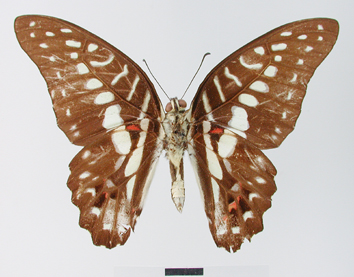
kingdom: Animalia
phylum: Arthropoda
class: Insecta
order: Lepidoptera
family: Papilionidae
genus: Graphium
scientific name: Graphium meyeri
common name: Meyer's triangle
